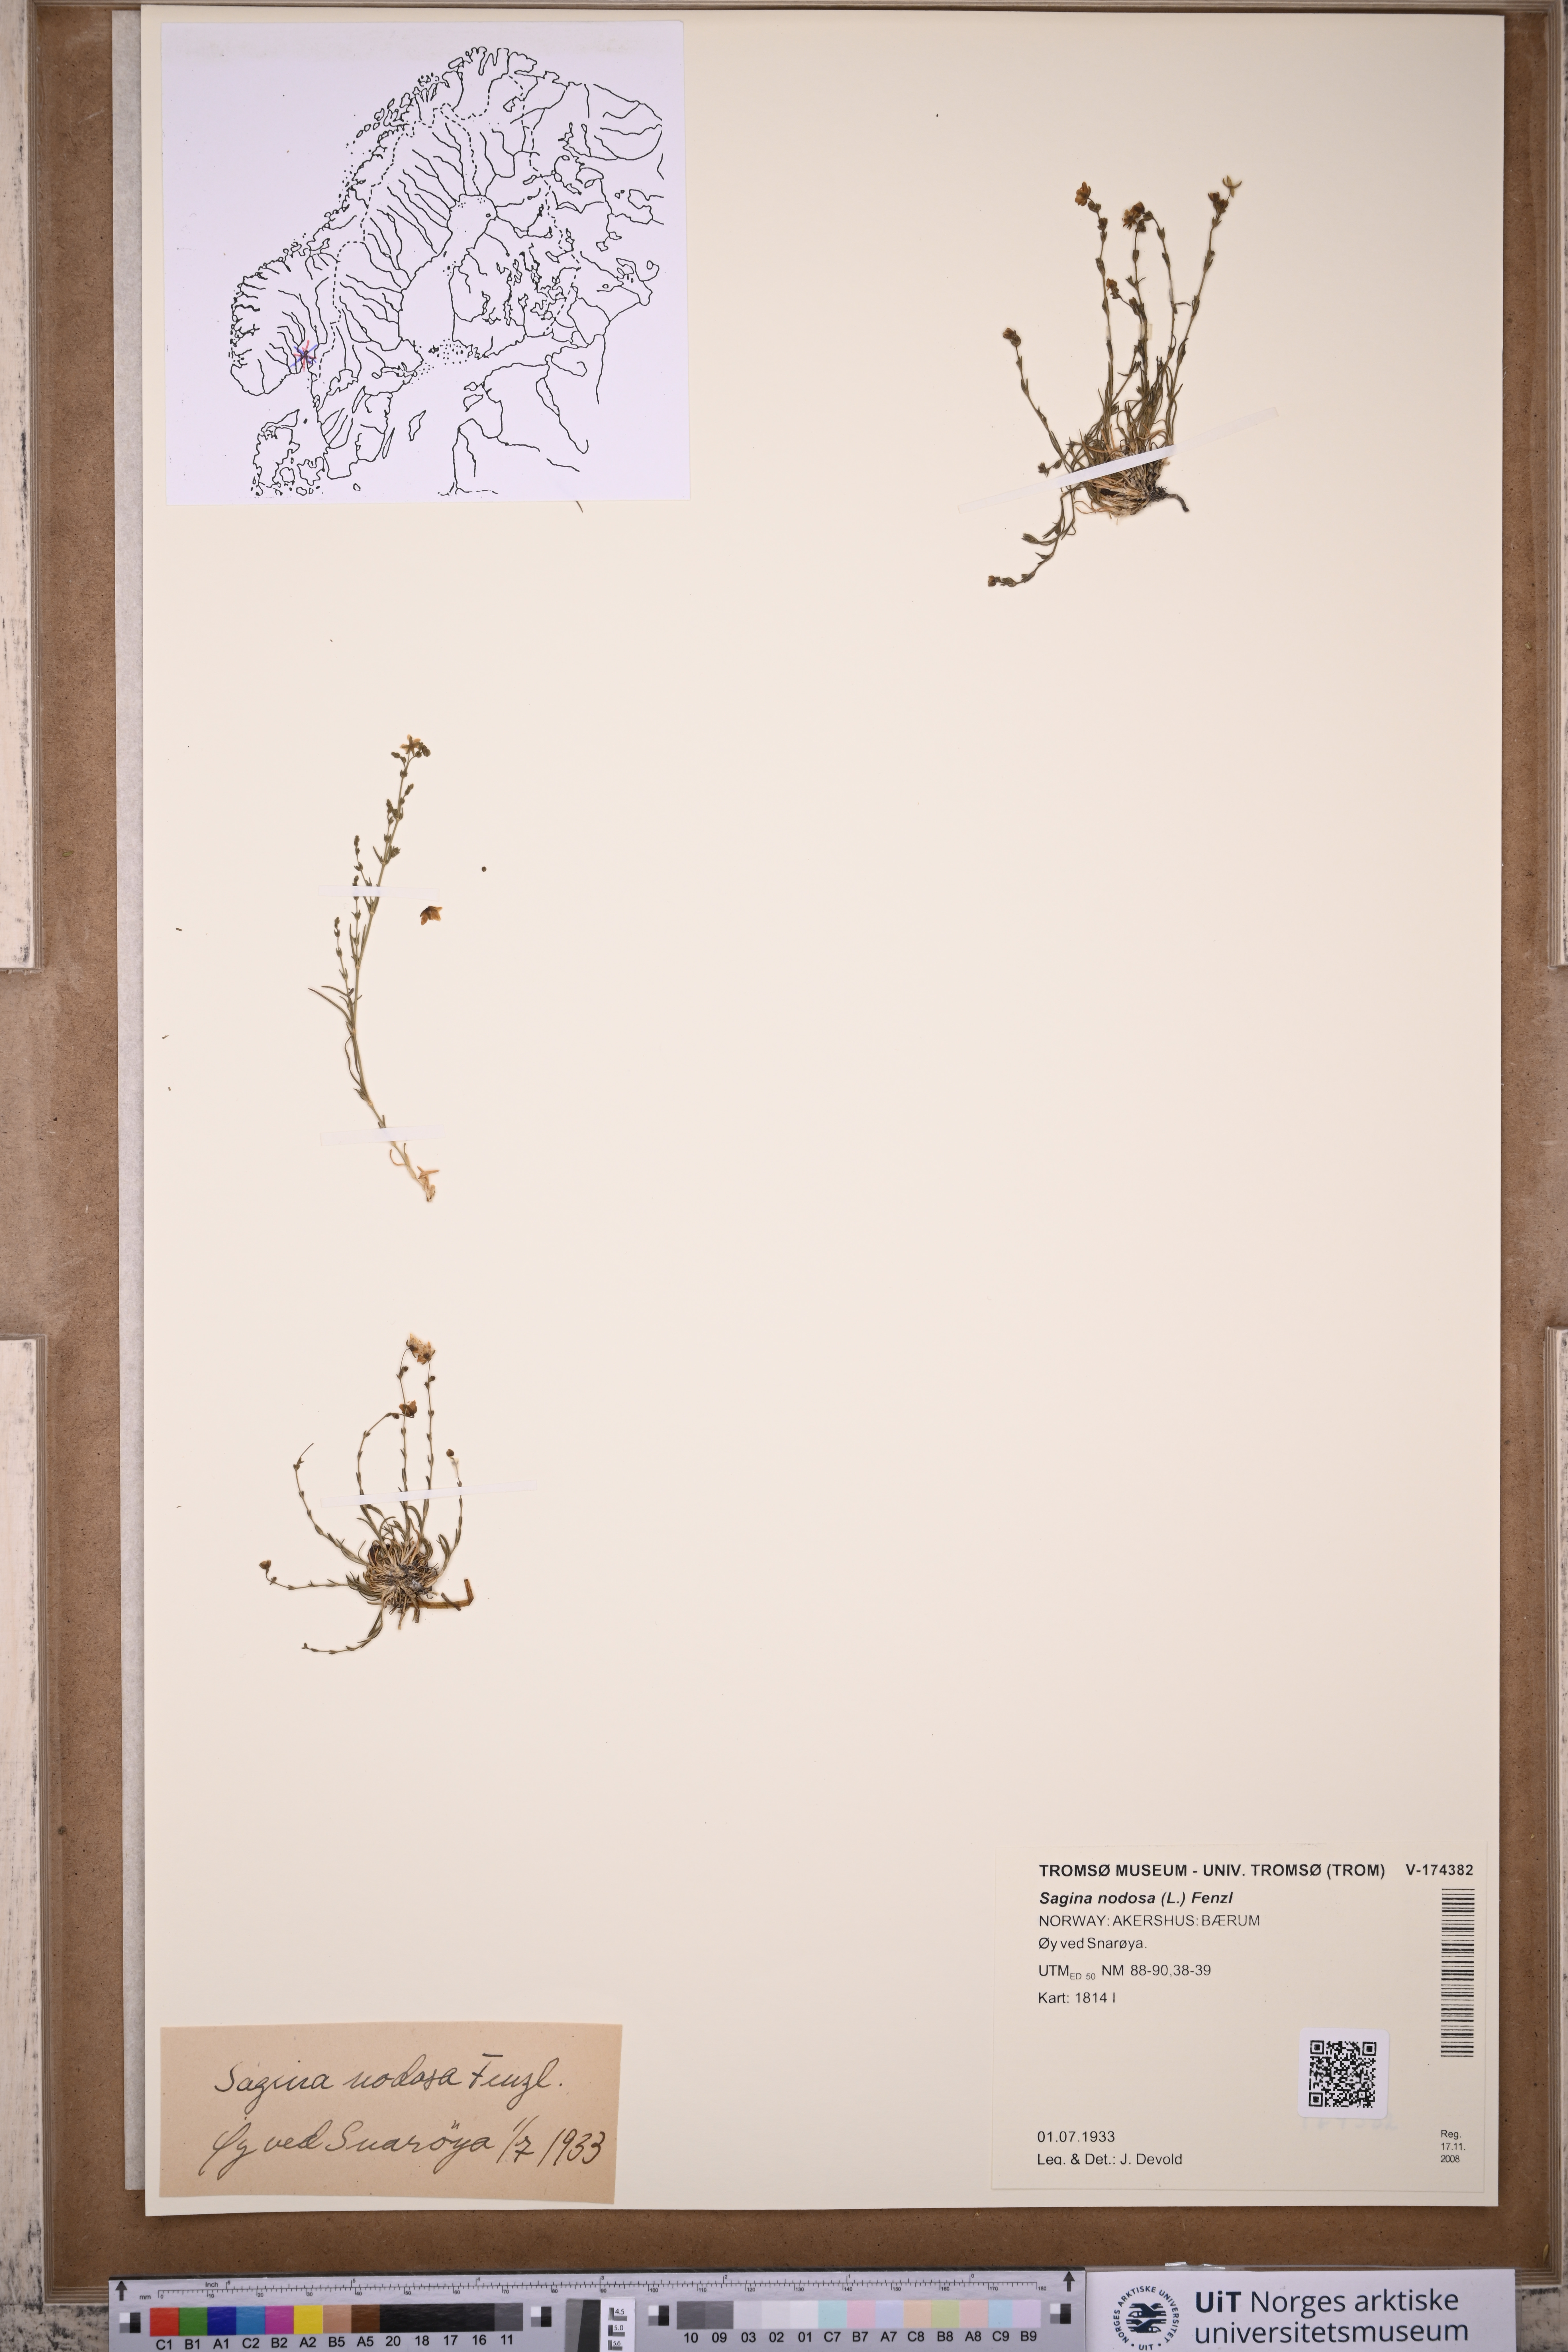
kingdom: Plantae
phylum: Tracheophyta
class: Magnoliopsida
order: Caryophyllales
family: Caryophyllaceae
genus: Sagina
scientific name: Sagina nodosa
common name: Knotted pearlwort
